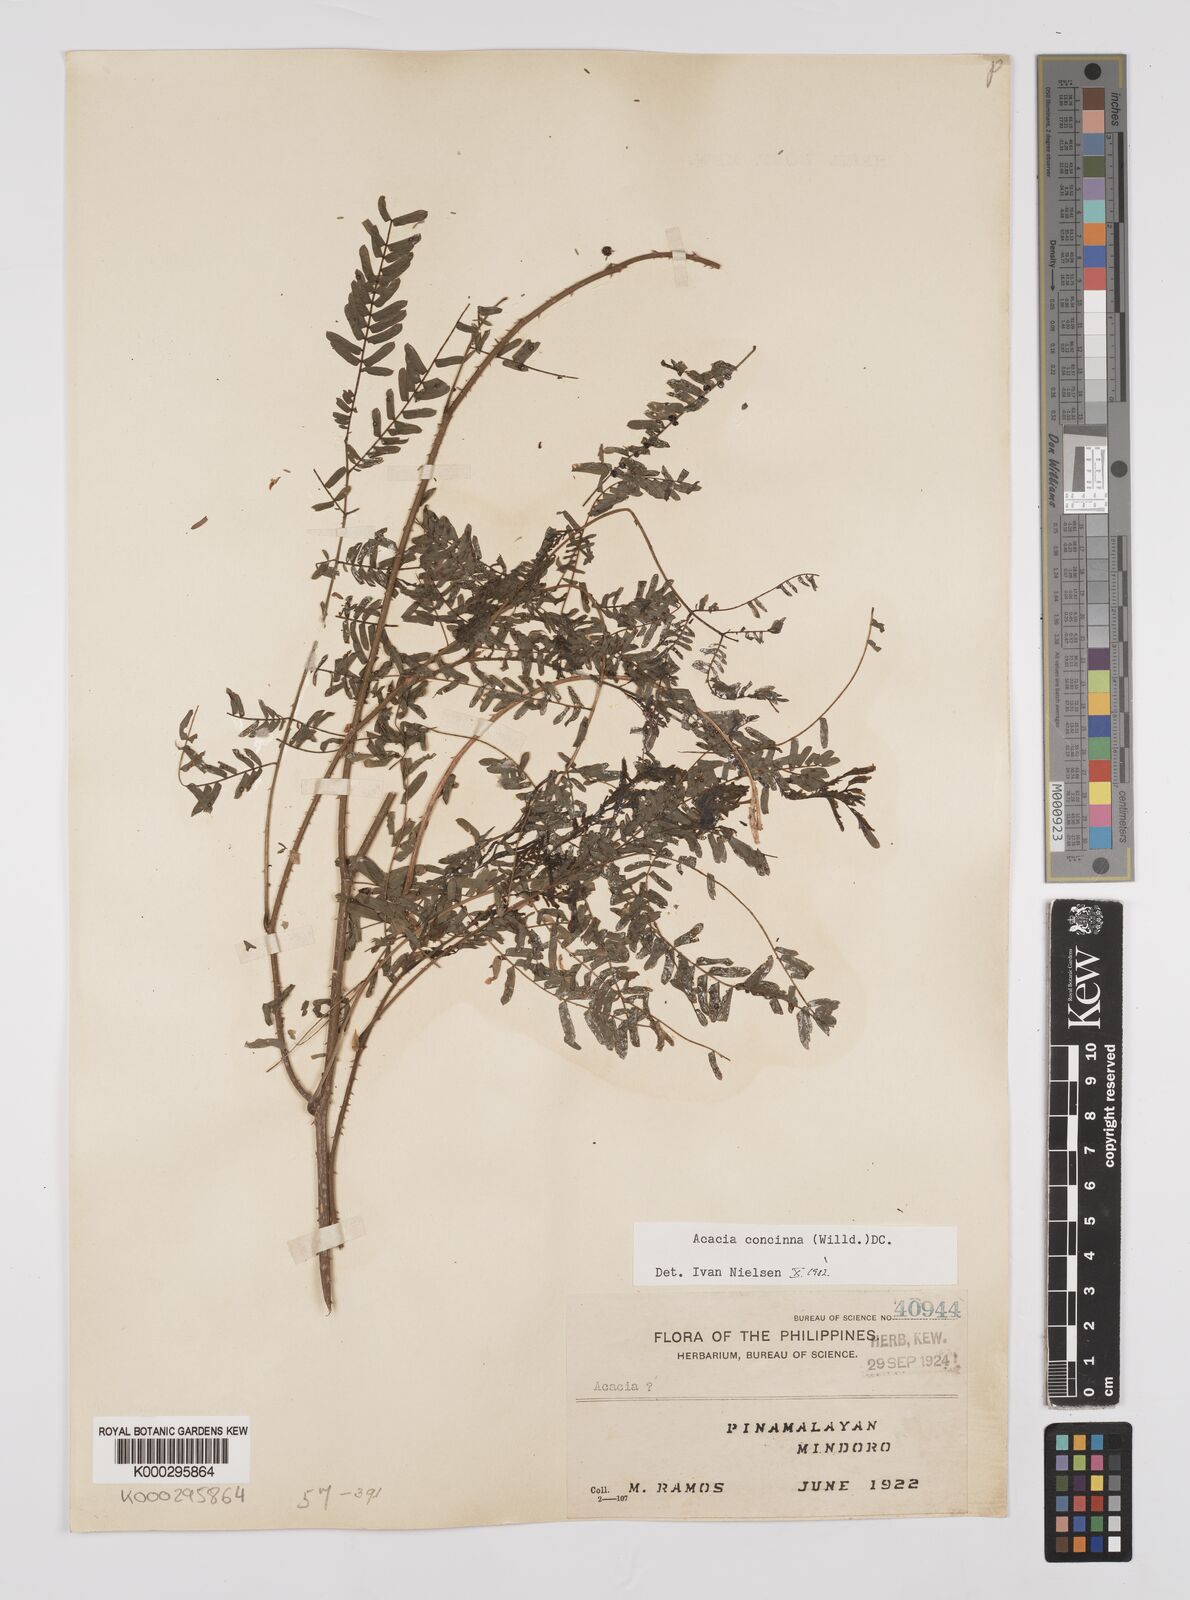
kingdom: Plantae
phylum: Tracheophyta
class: Magnoliopsida
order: Fabales
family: Fabaceae
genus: Senegalia
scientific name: Senegalia rugata
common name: Soap-pod
